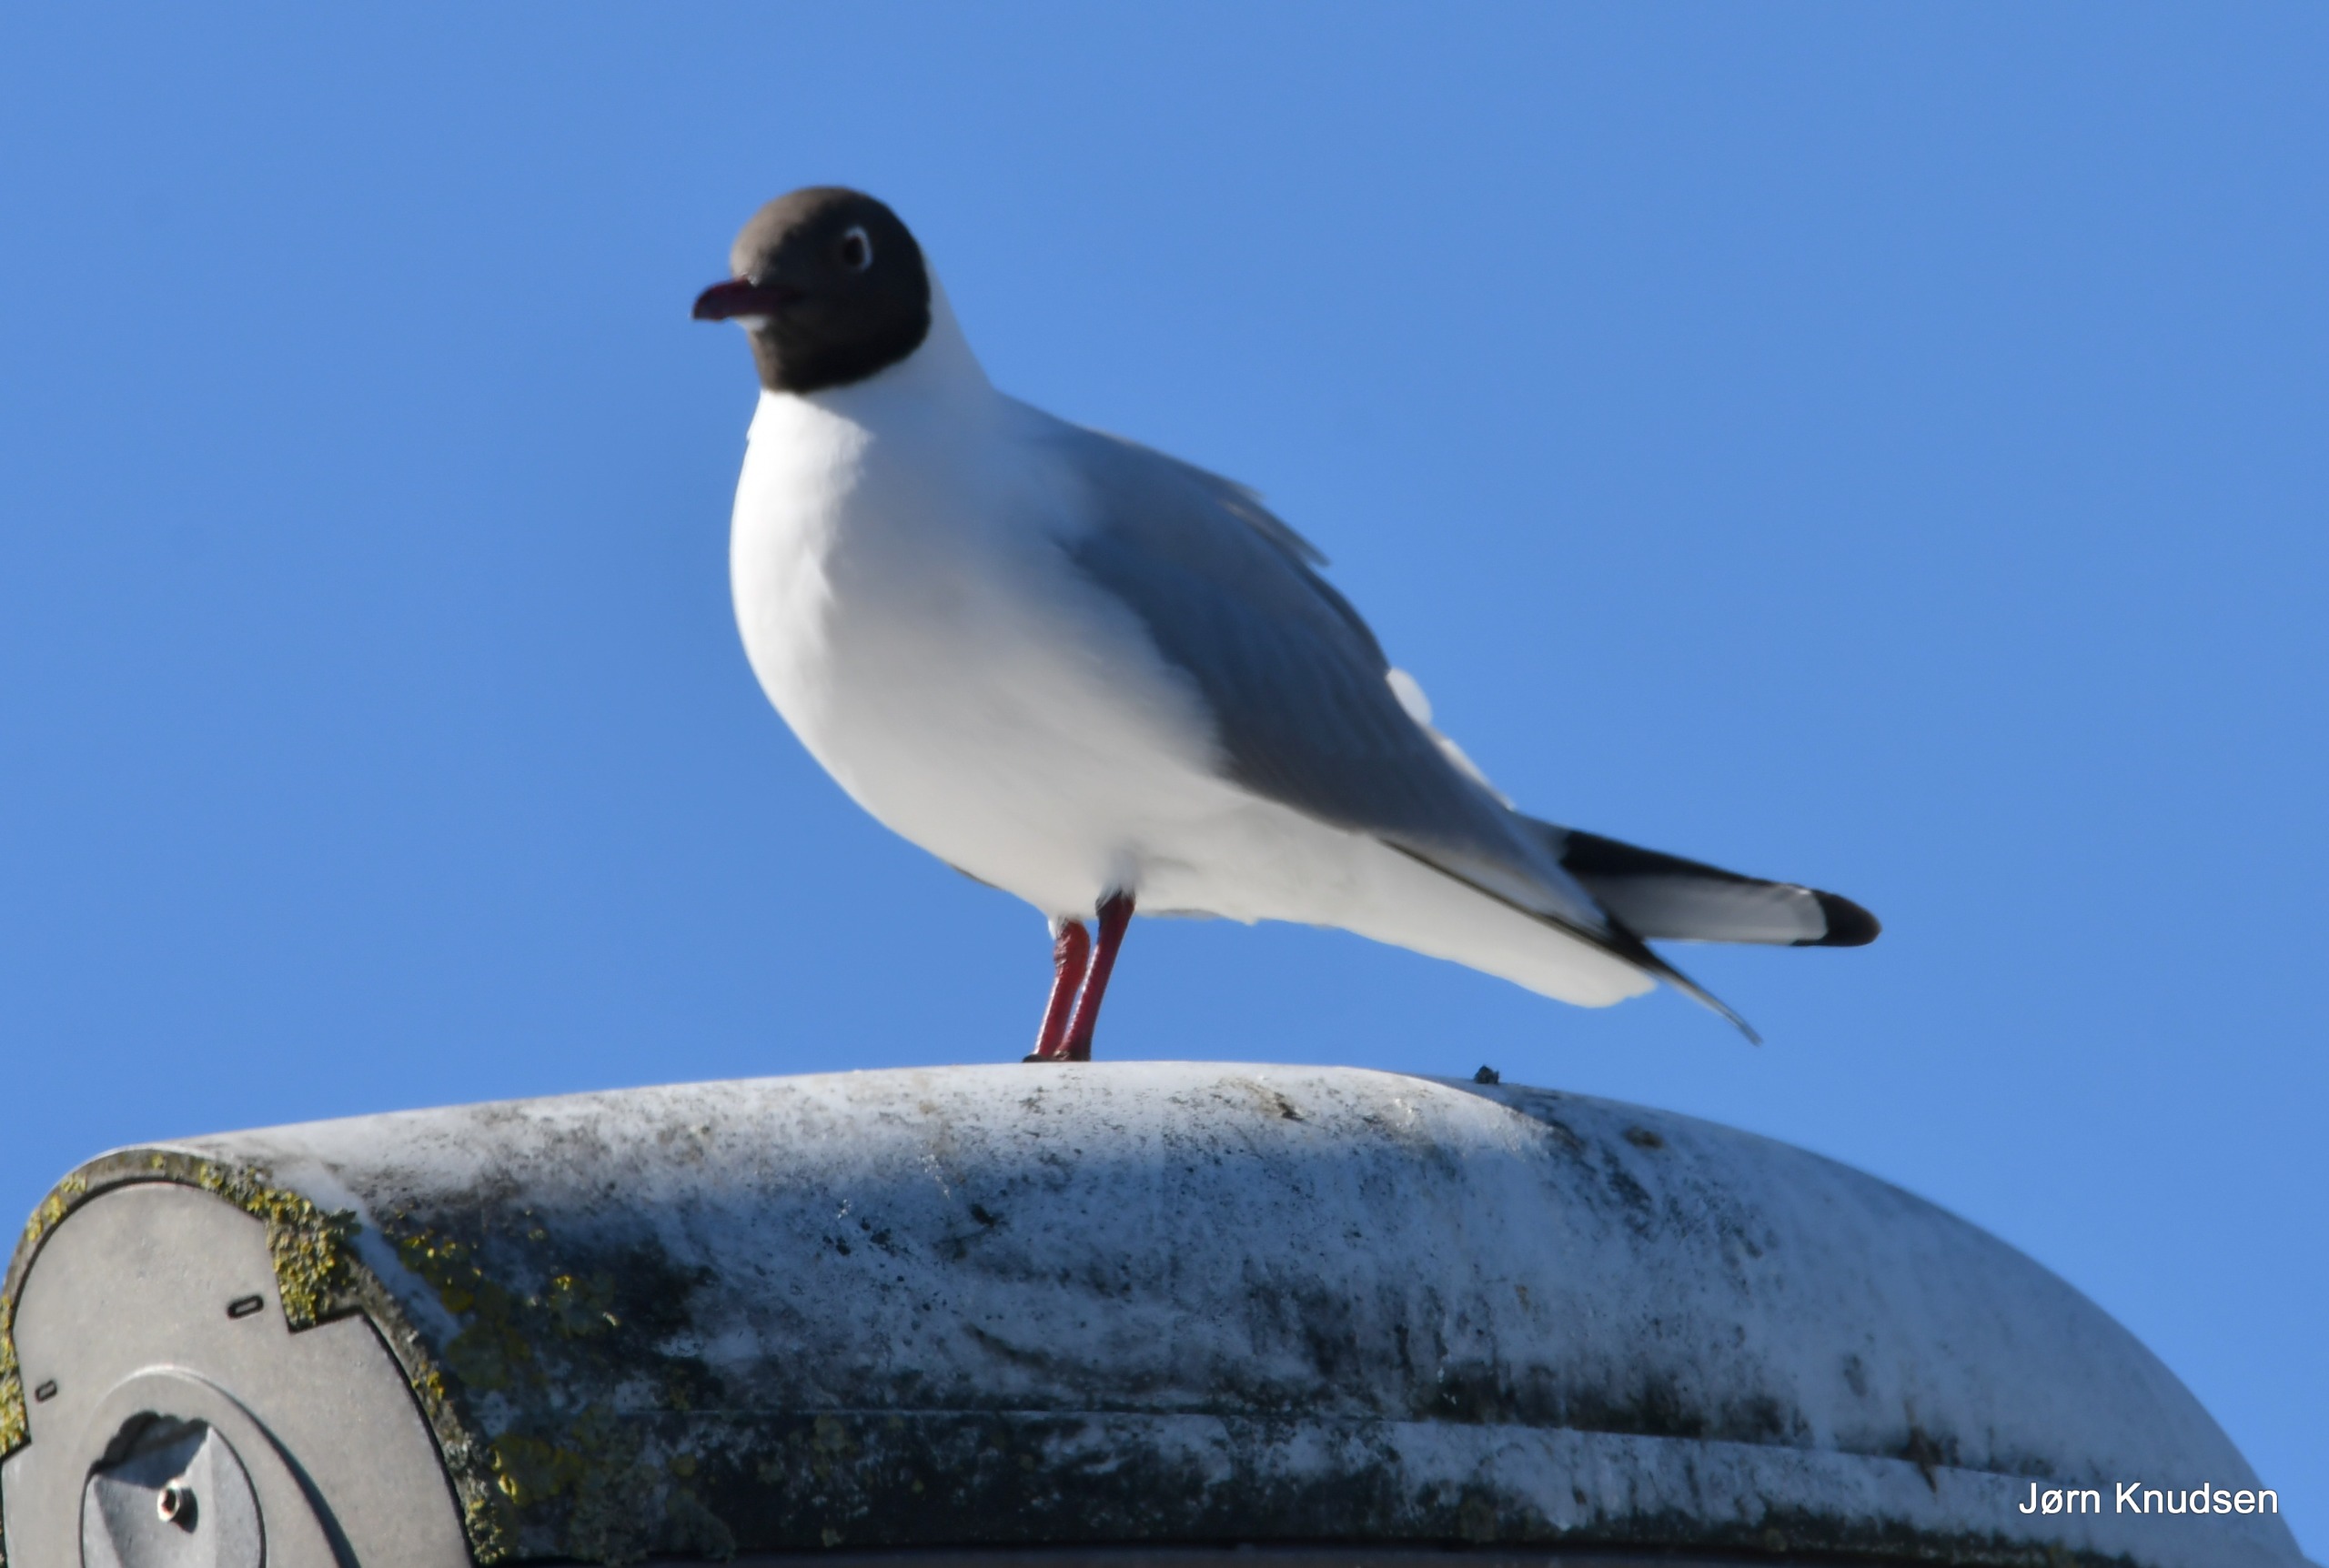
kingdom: Animalia
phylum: Chordata
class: Aves
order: Charadriiformes
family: Laridae
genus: Chroicocephalus
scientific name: Chroicocephalus ridibundus
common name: Hættemåge
